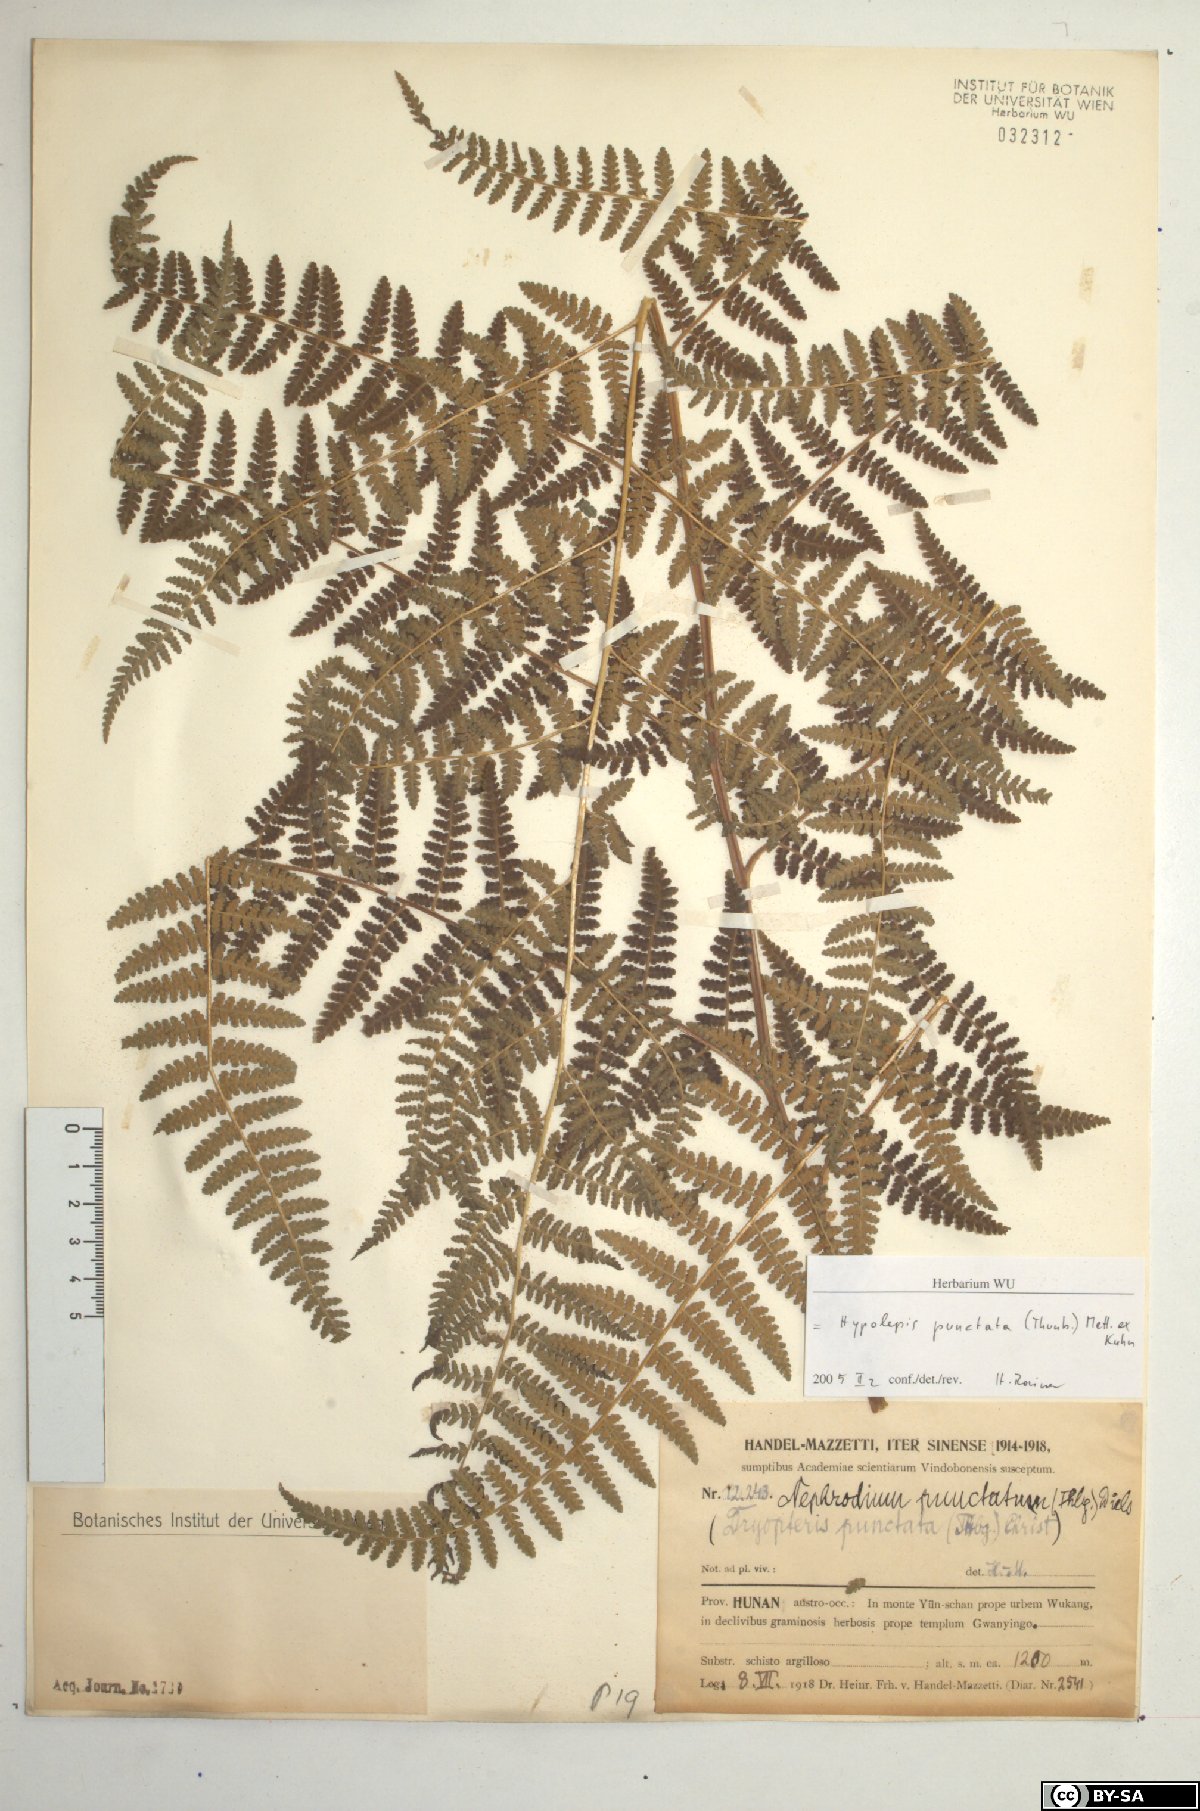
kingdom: Plantae
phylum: Tracheophyta
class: Polypodiopsida
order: Polypodiales
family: Dennstaedtiaceae
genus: Hypolepis
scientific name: Hypolepis punctata
